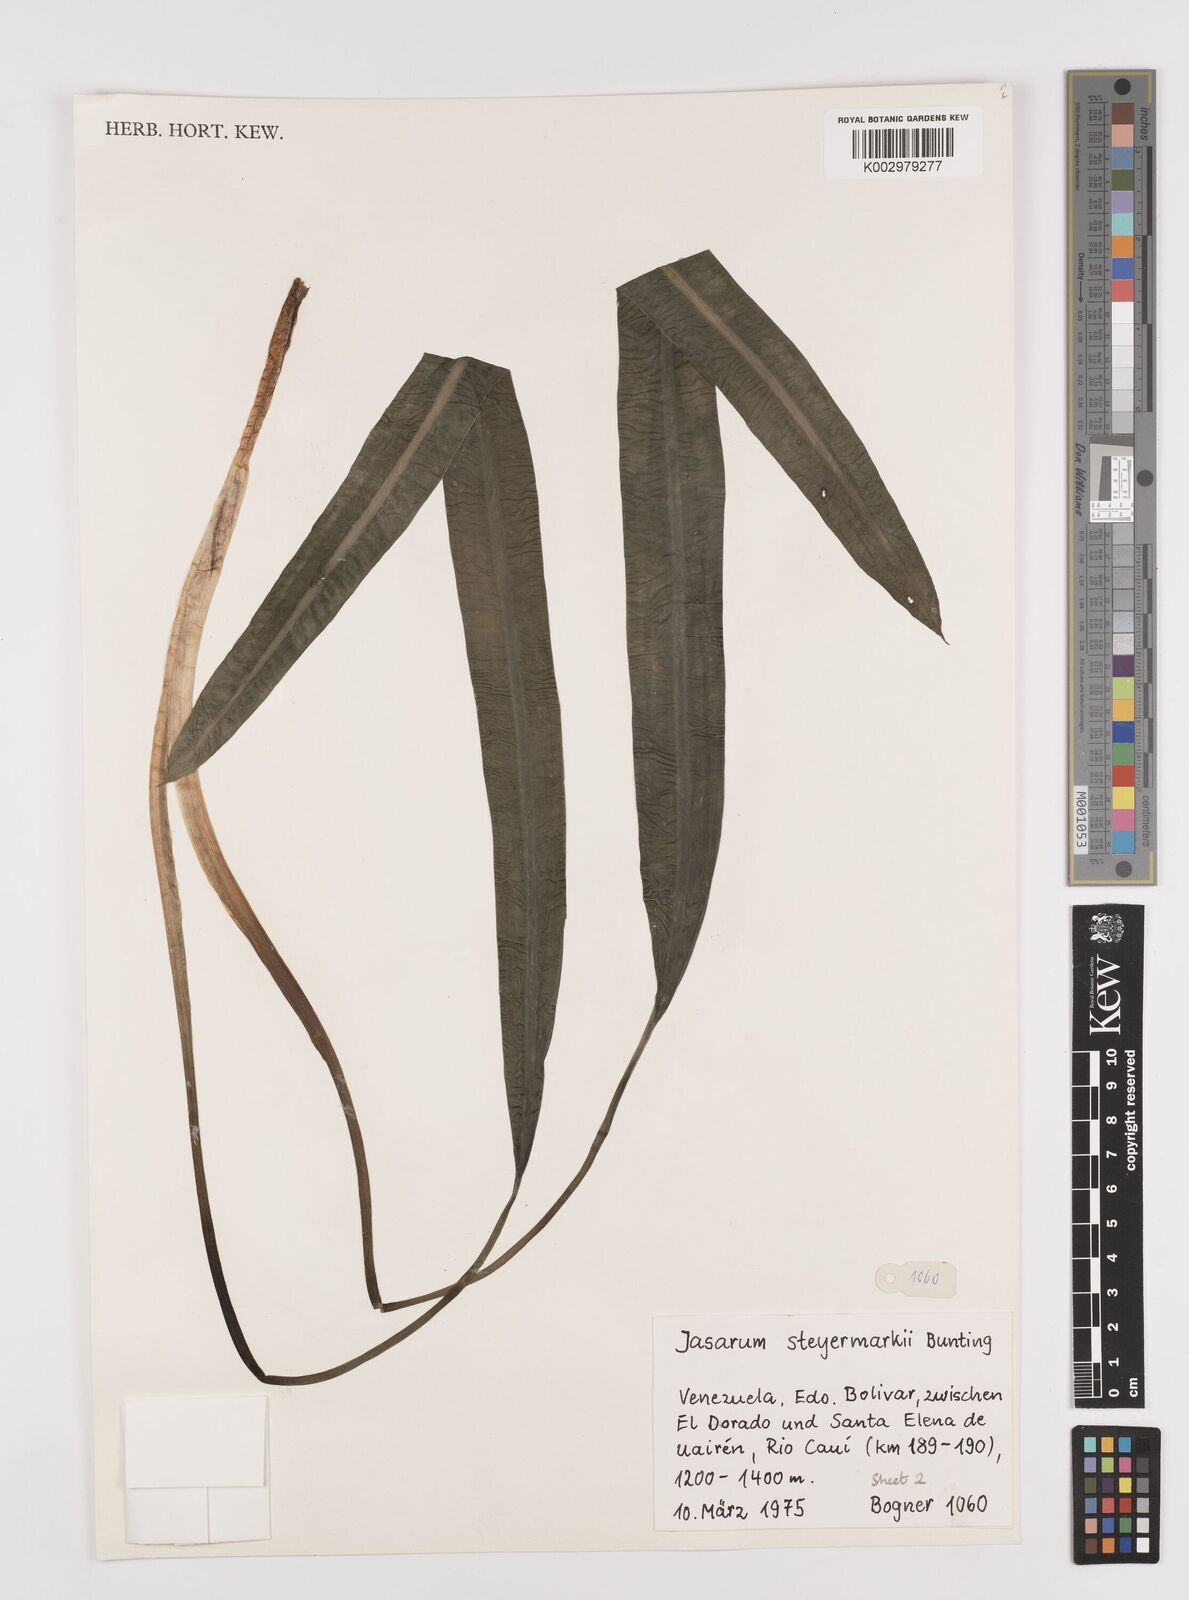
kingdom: Plantae
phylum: Tracheophyta
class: Liliopsida
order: Alismatales
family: Araceae
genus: Jasarum
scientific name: Jasarum steyermarkii
